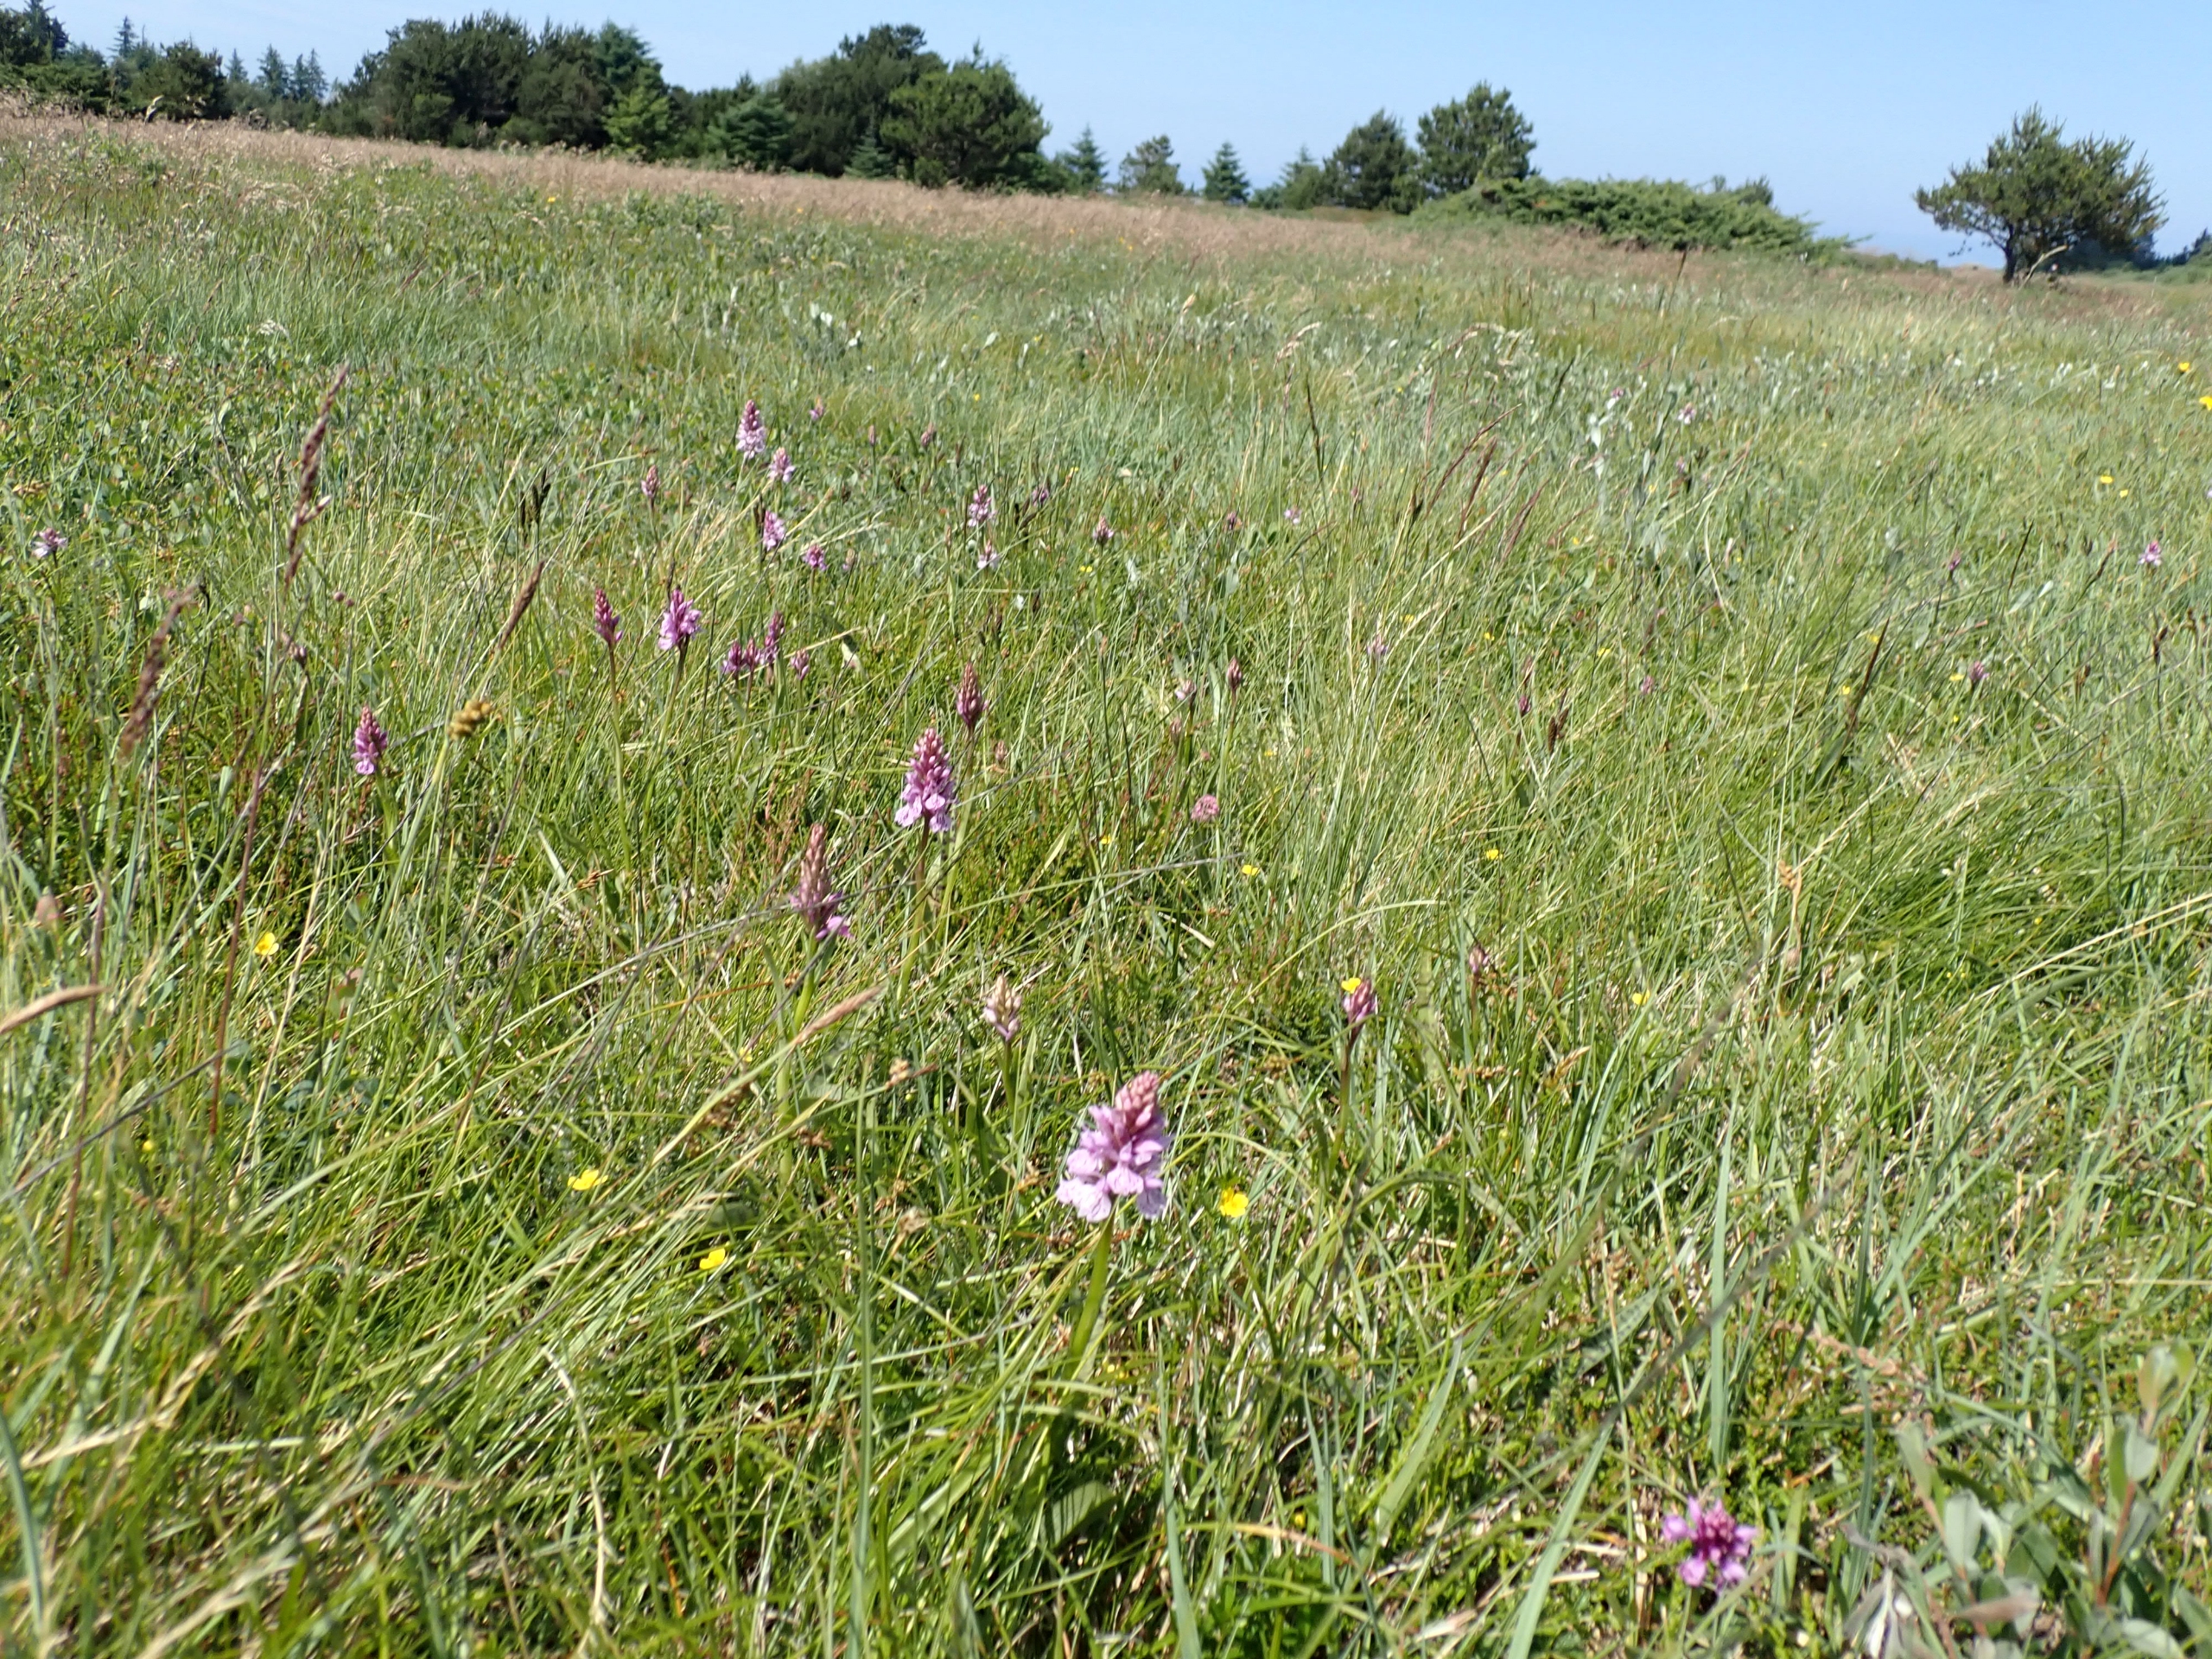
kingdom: Plantae
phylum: Tracheophyta
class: Liliopsida
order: Asparagales
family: Orchidaceae
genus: Dactylorhiza
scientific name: Dactylorhiza maculata
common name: Plettet gøgeurt
